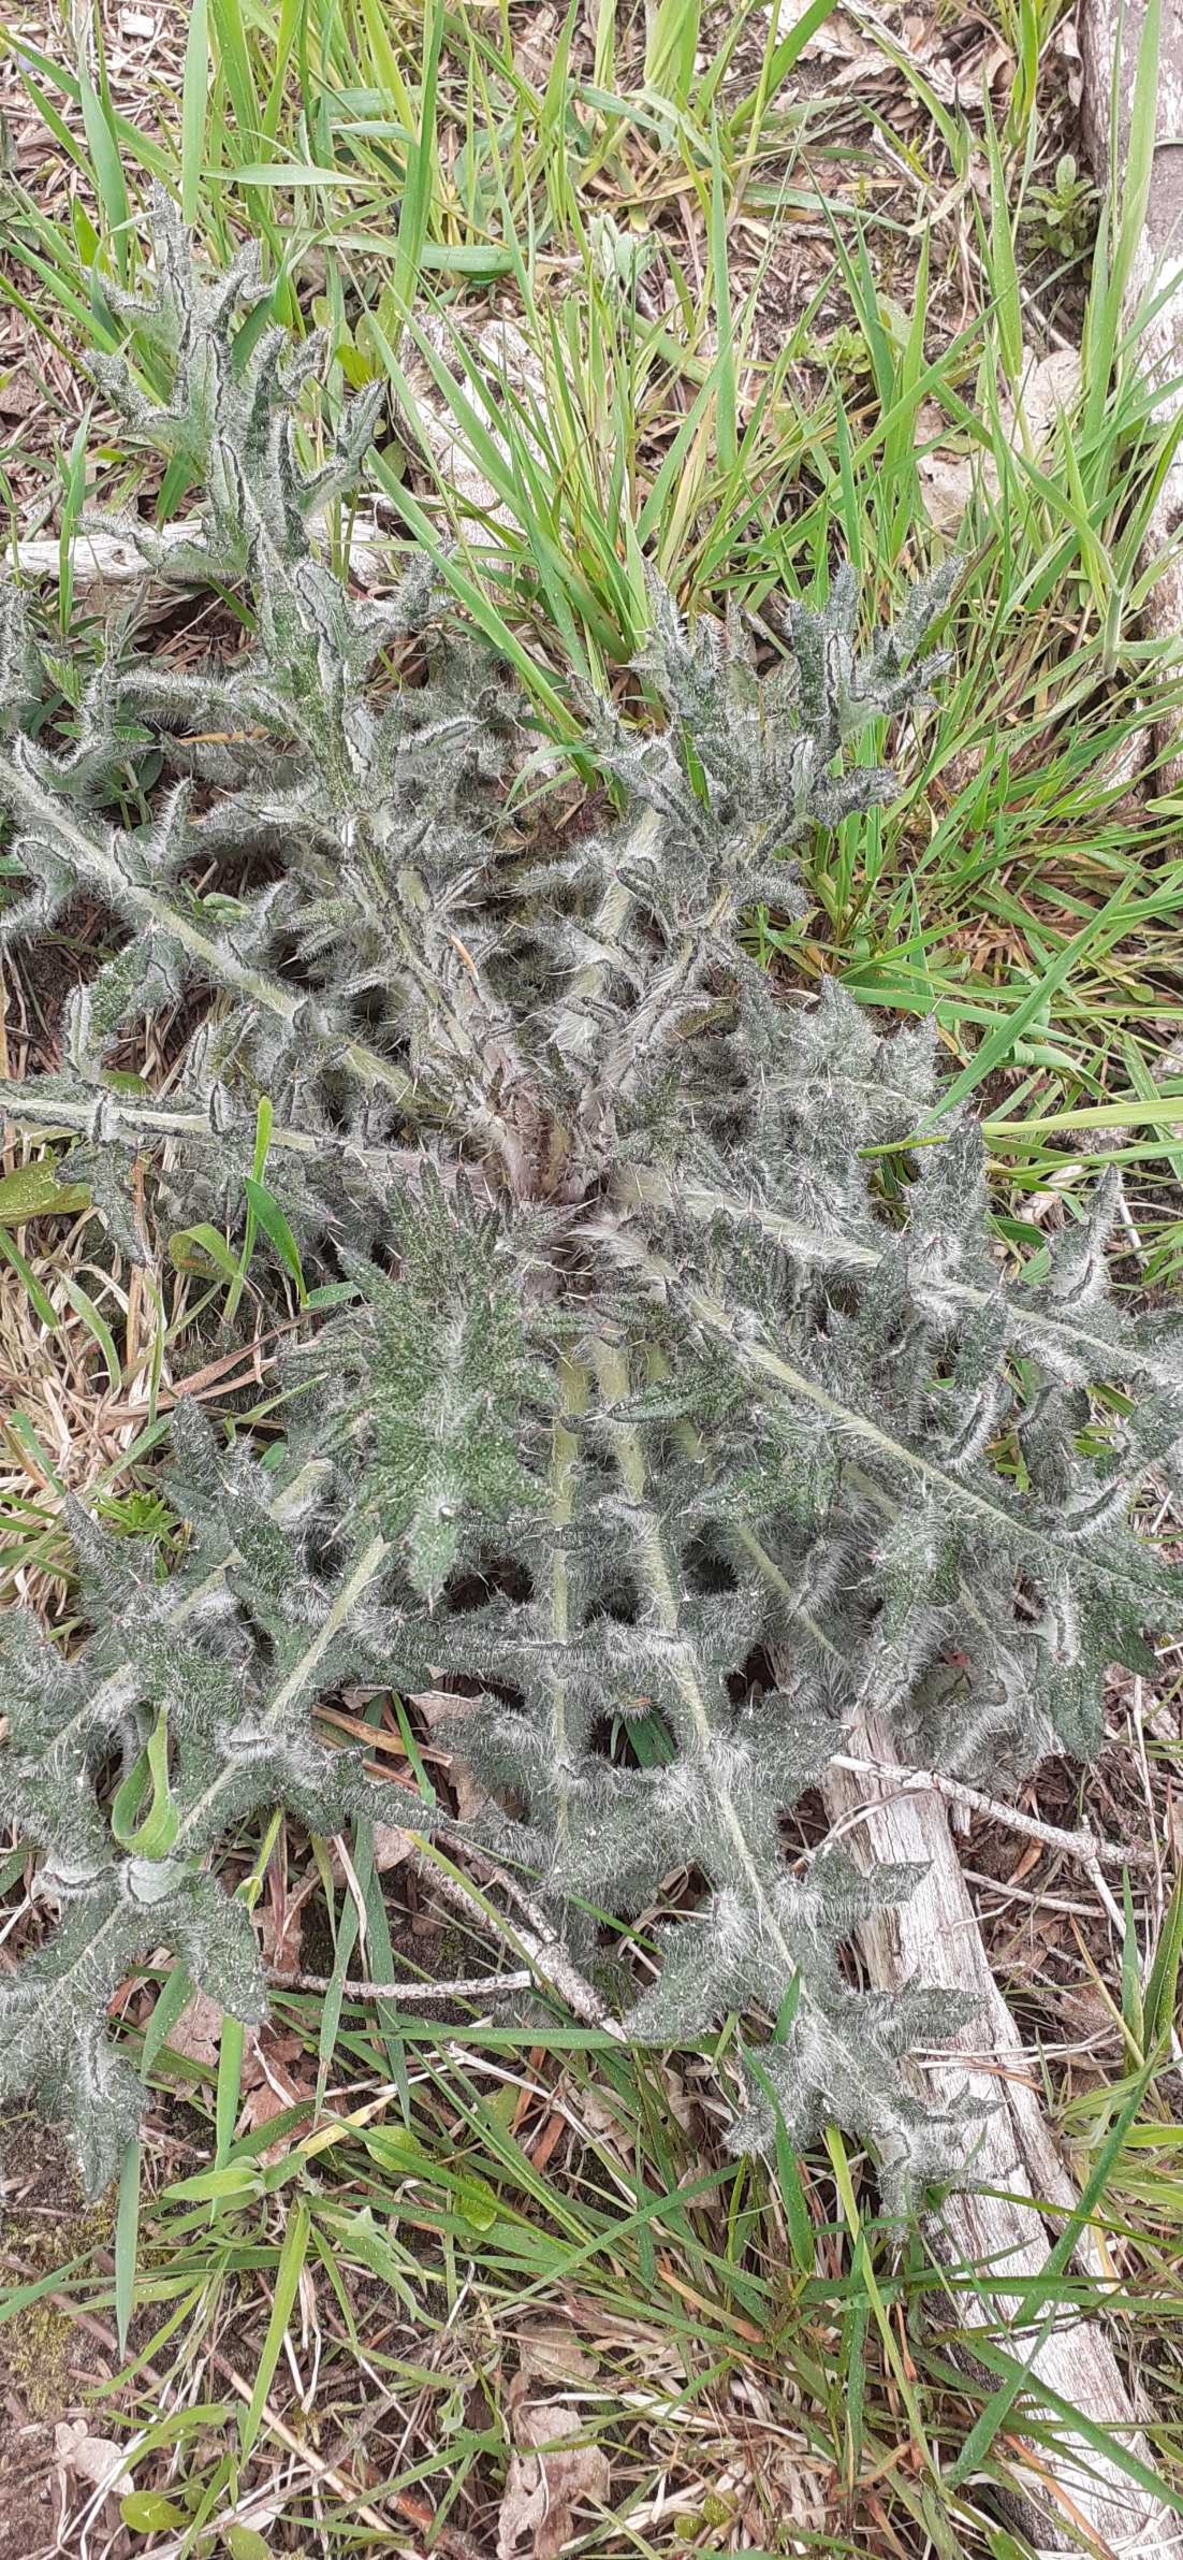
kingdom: Plantae
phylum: Tracheophyta
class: Magnoliopsida
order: Asterales
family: Asteraceae
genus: Cirsium
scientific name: Cirsium vulgare
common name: Horse-tidsel
